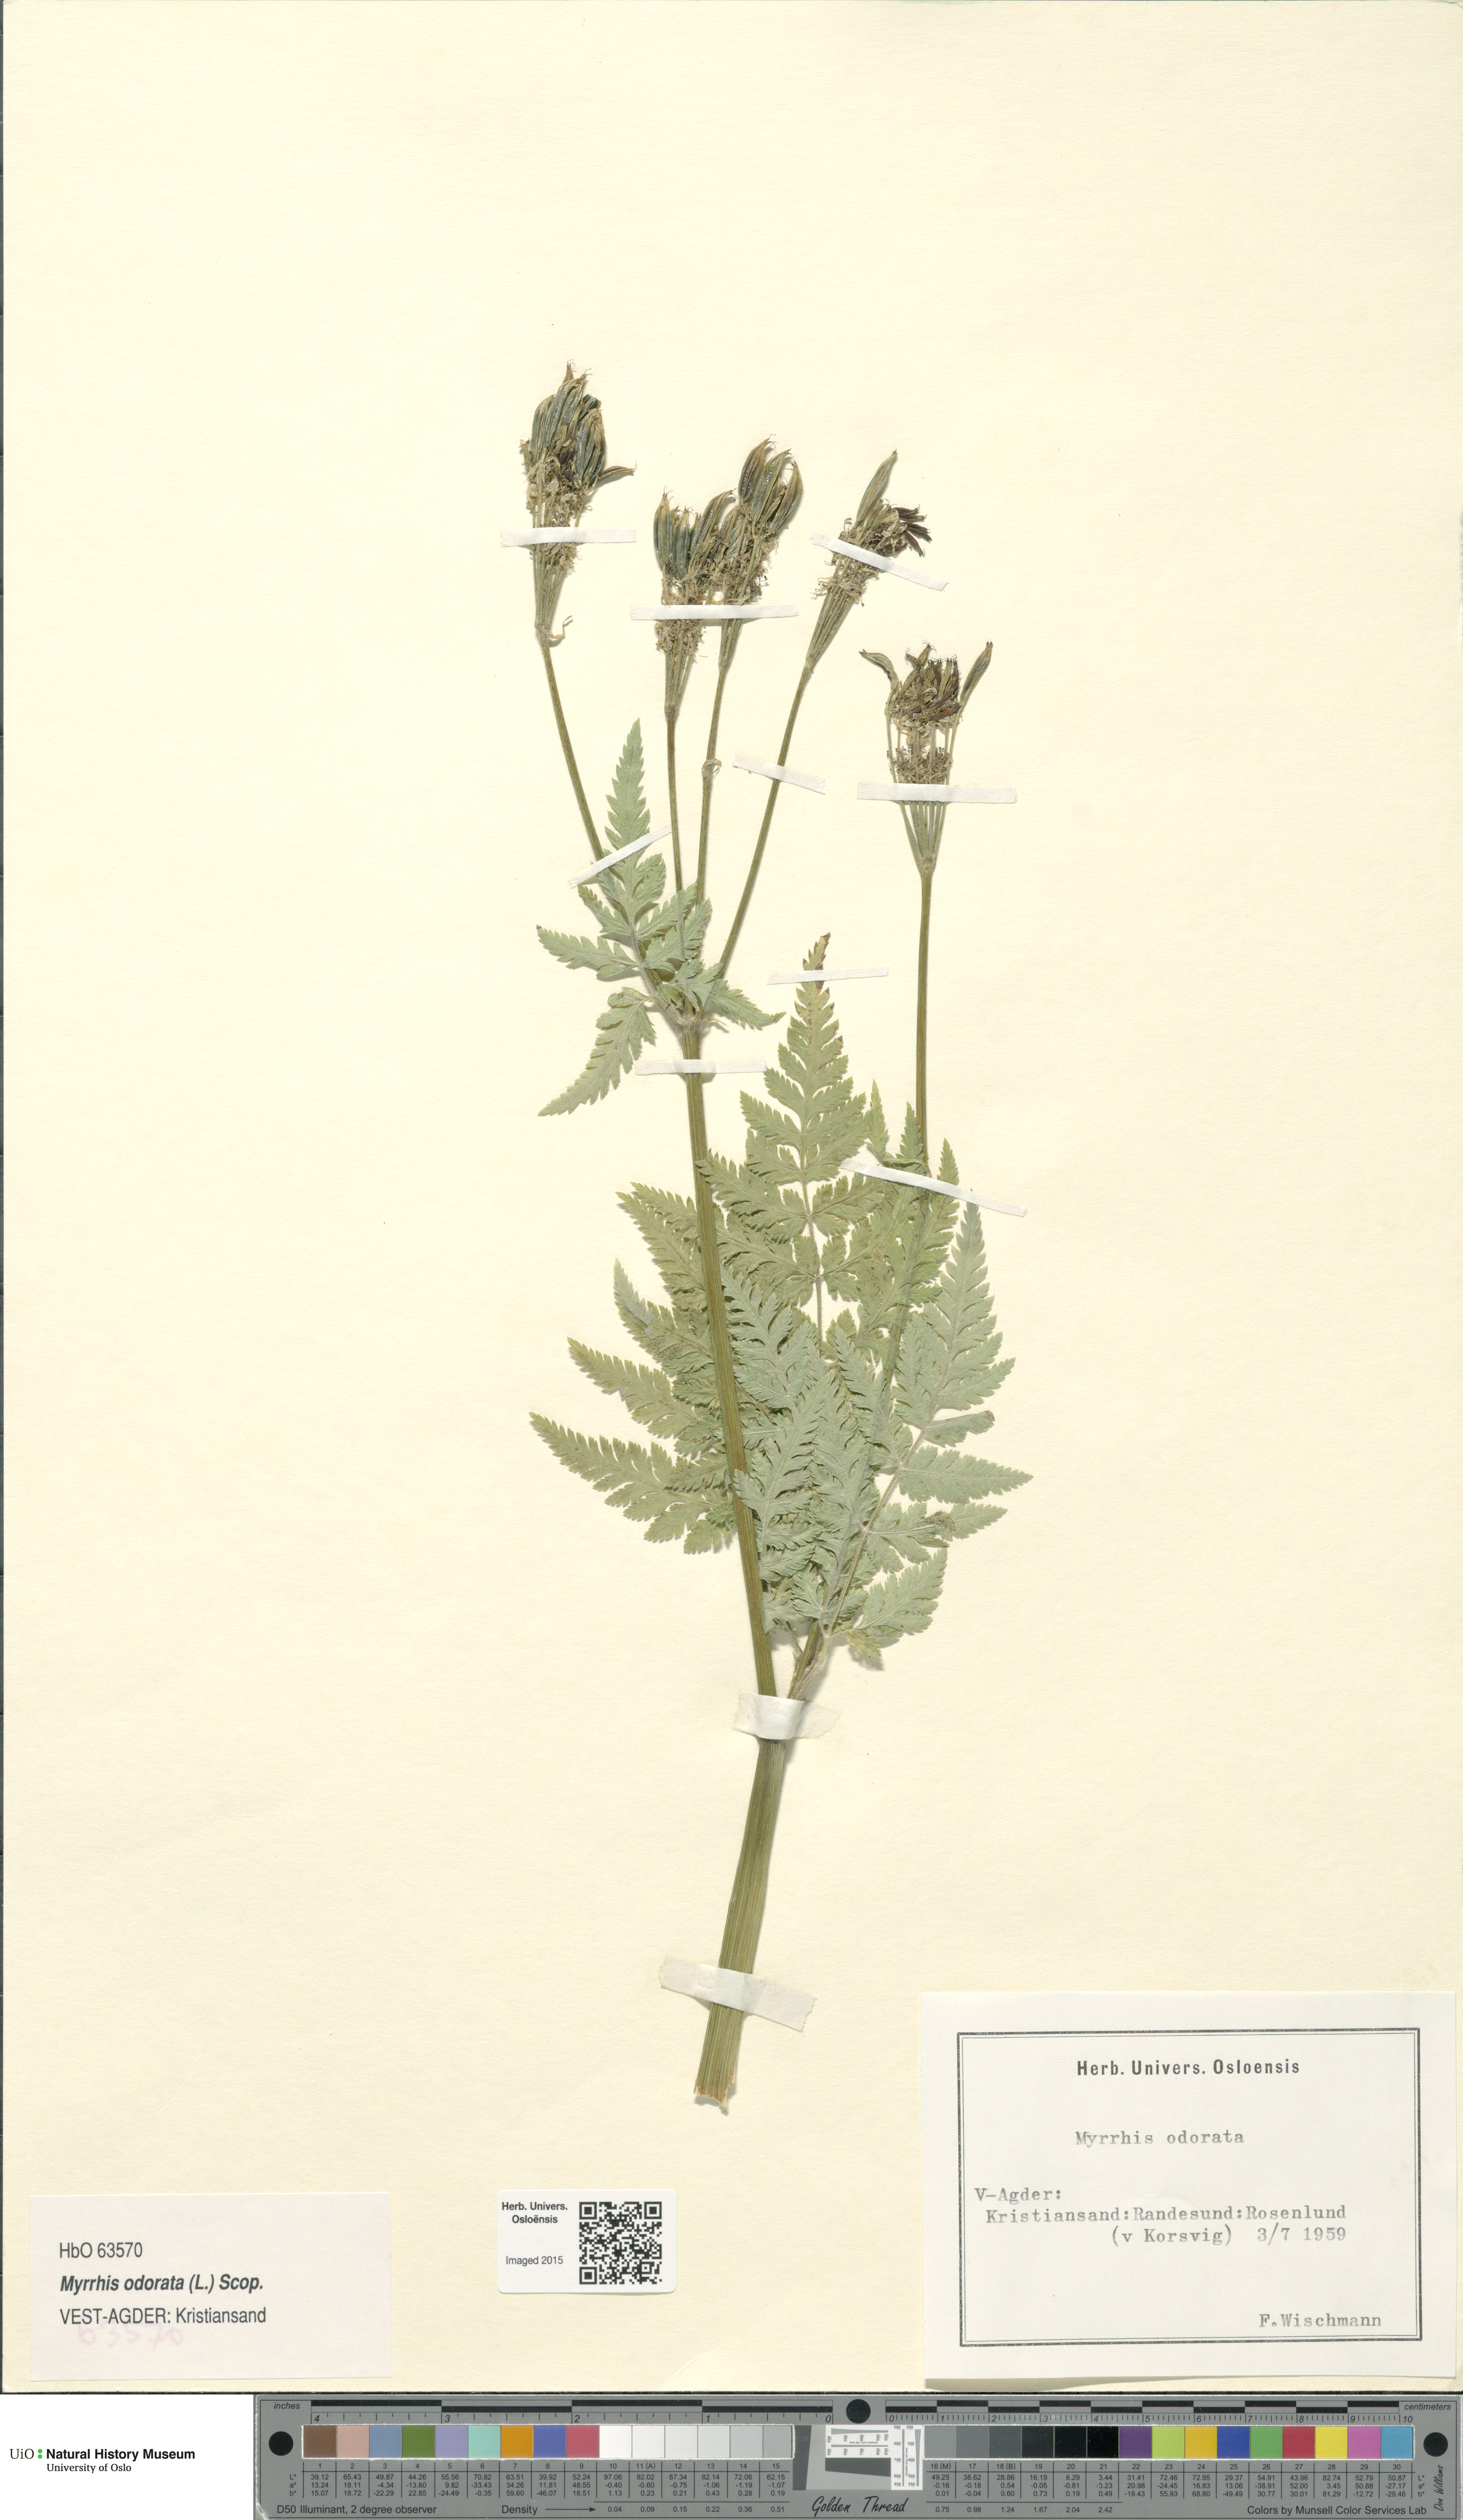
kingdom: Plantae
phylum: Tracheophyta
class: Magnoliopsida
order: Apiales
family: Apiaceae
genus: Myrrhis
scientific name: Myrrhis odorata
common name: Sweet cicely
